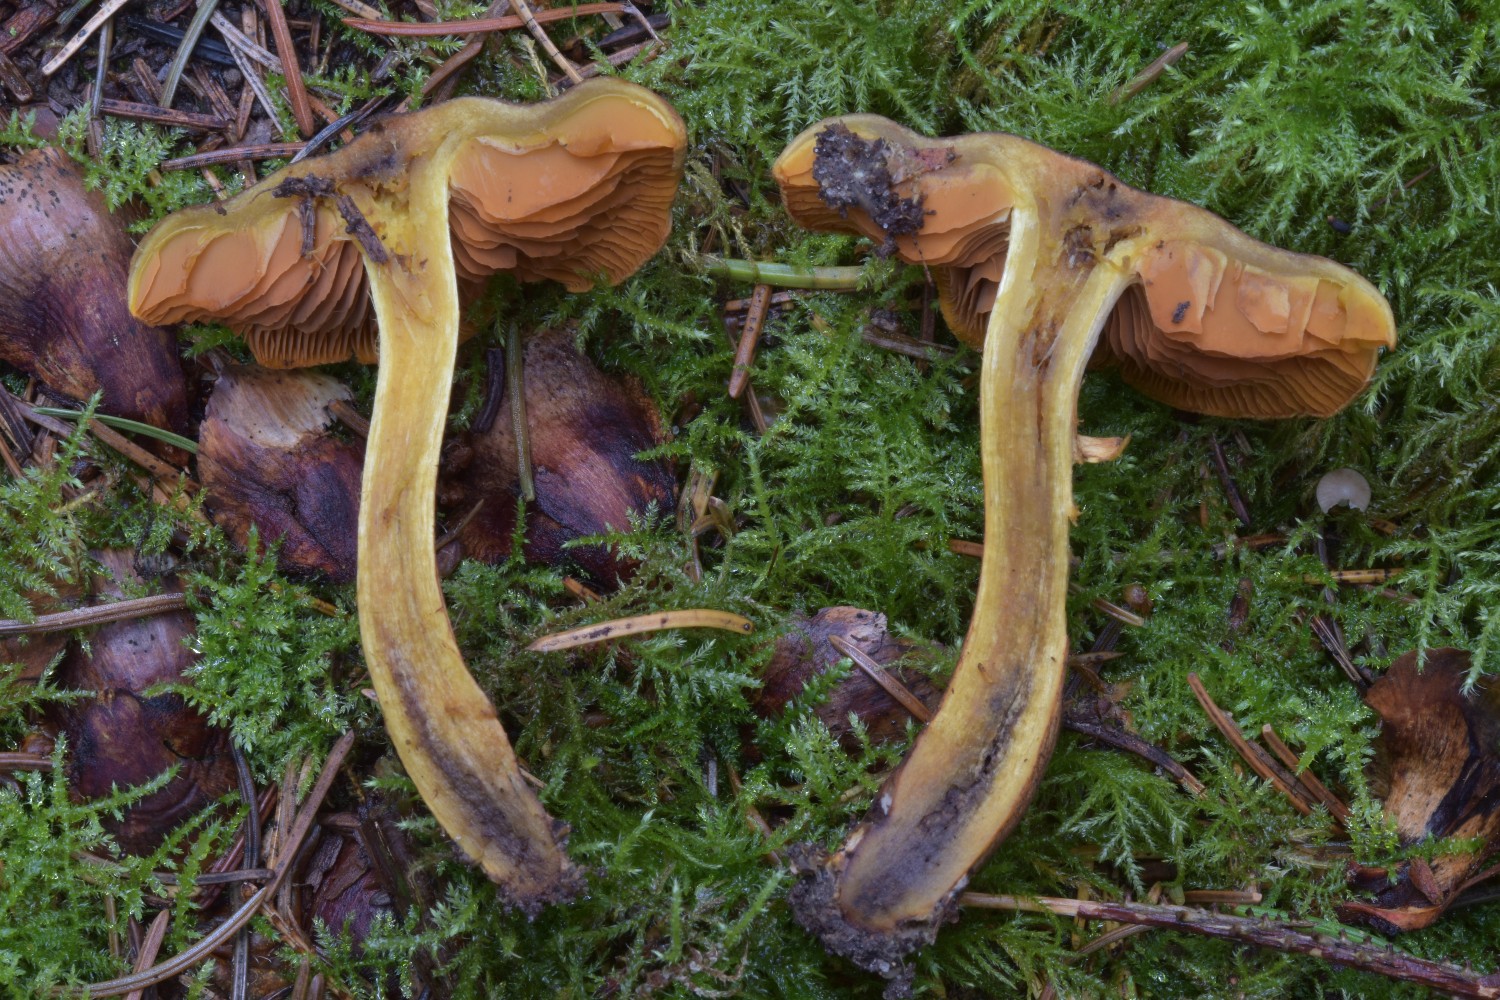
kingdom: Fungi
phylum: Basidiomycota
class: Agaricomycetes
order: Agaricales
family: Cortinariaceae
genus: Cortinarius
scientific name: Cortinarius malicorius
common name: grønkødet slørhat
